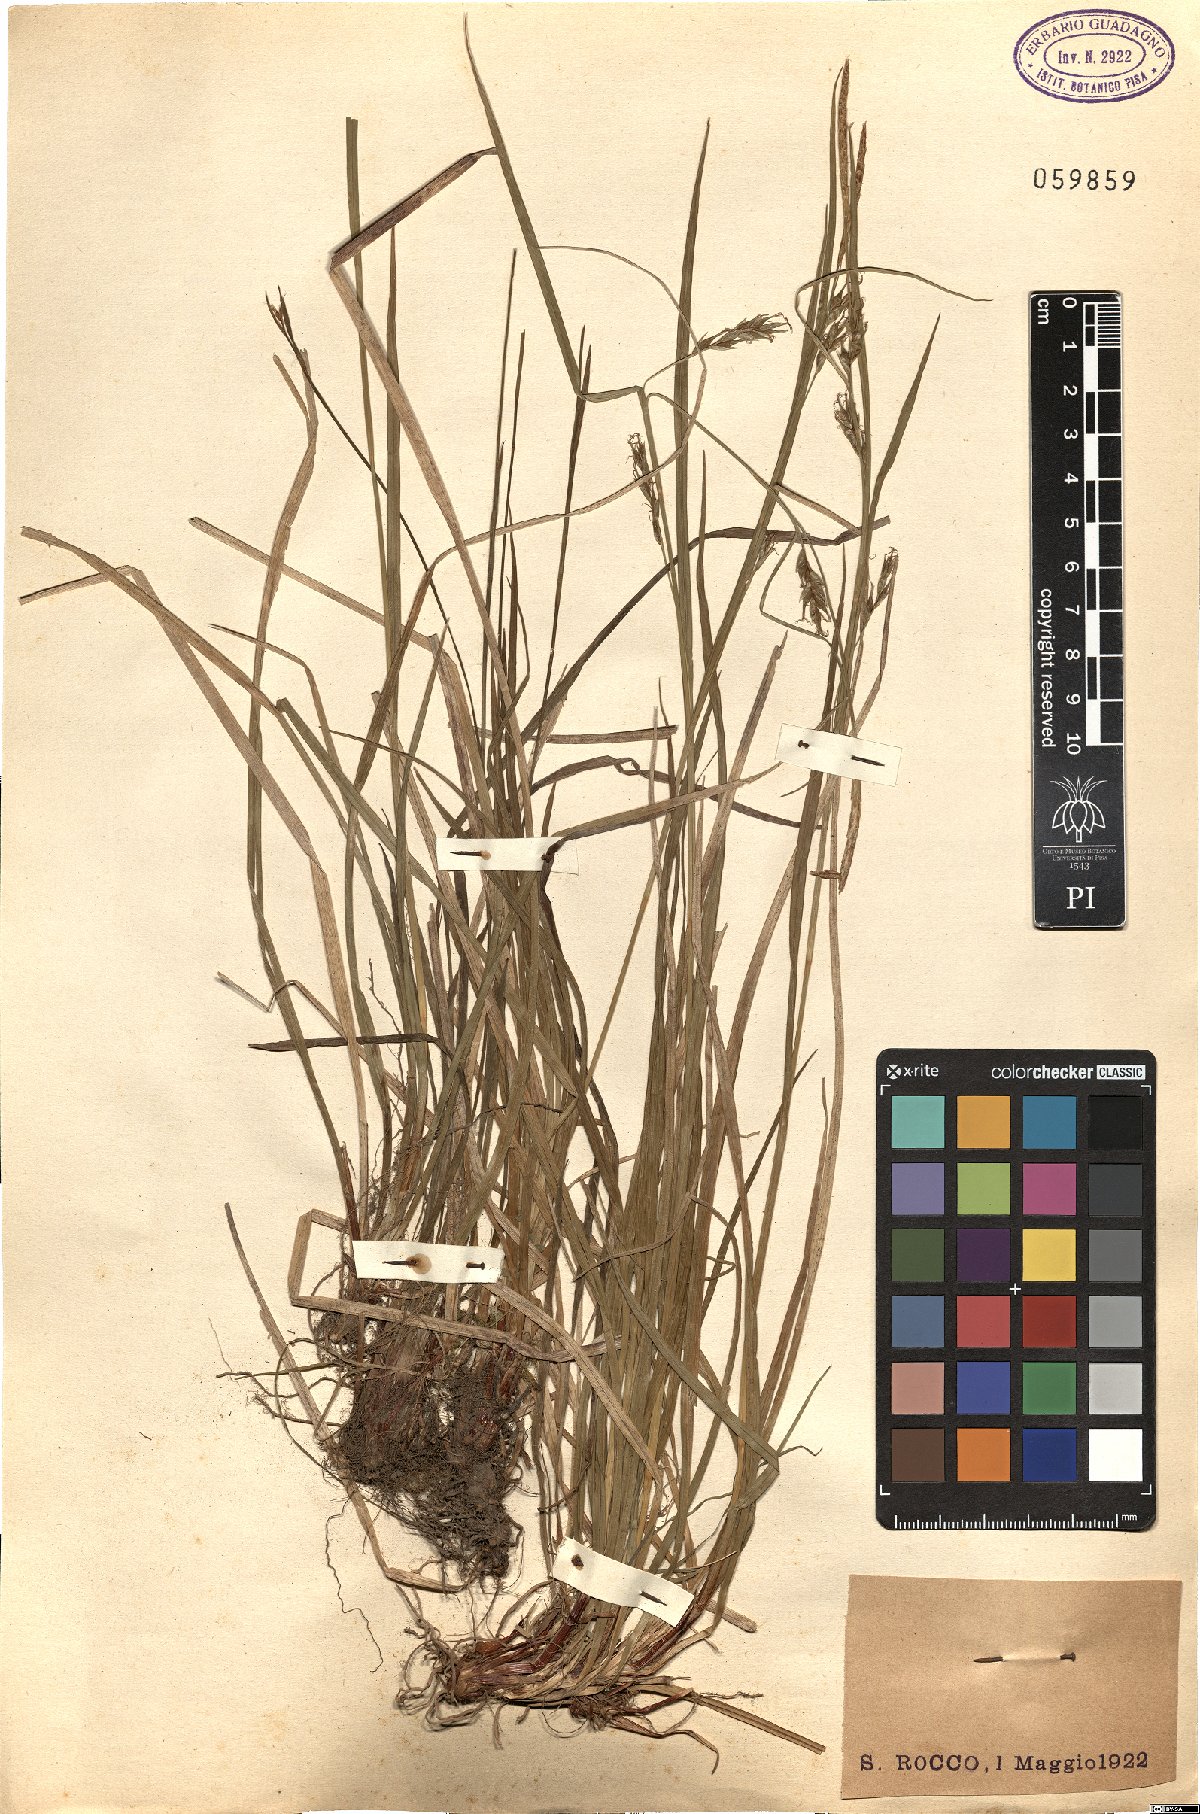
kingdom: Plantae
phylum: Tracheophyta
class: Liliopsida
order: Poales
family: Cyperaceae
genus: Carex
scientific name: Carex
